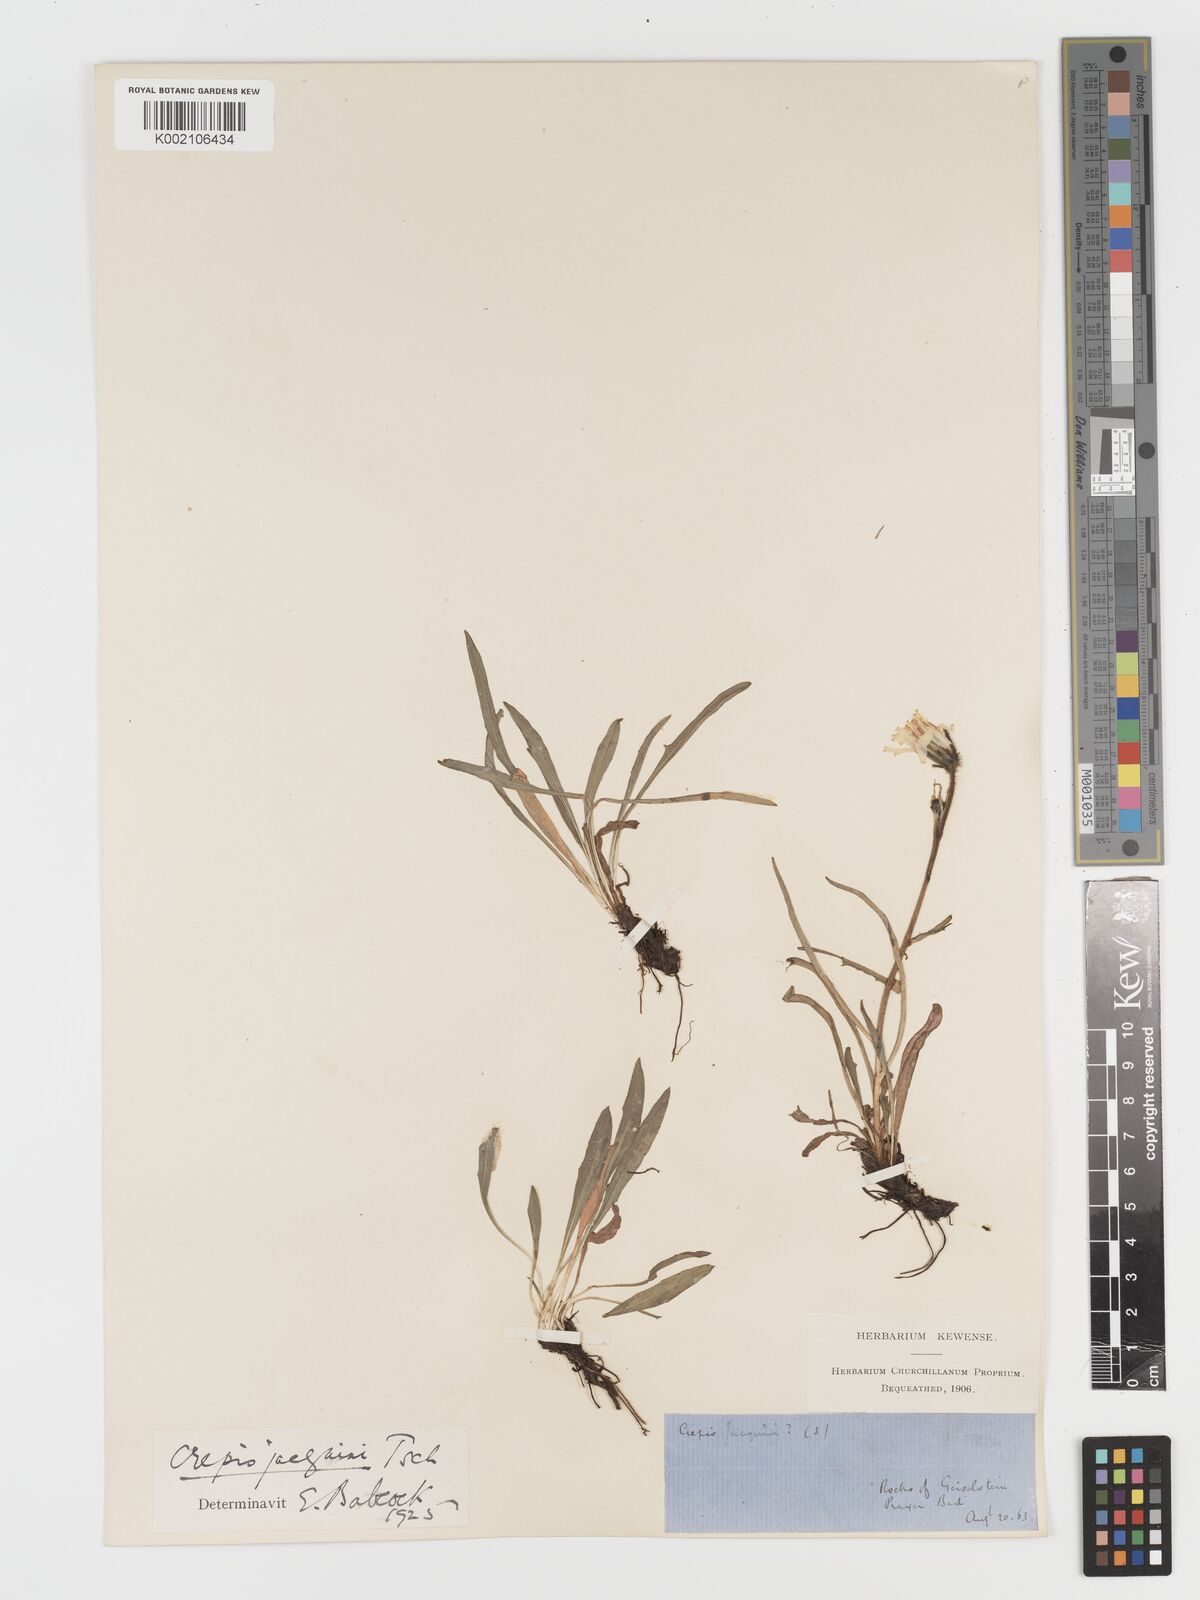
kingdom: Plantae
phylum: Tracheophyta
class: Magnoliopsida
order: Asterales
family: Asteraceae
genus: Crepis
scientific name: Crepis jacquinii
